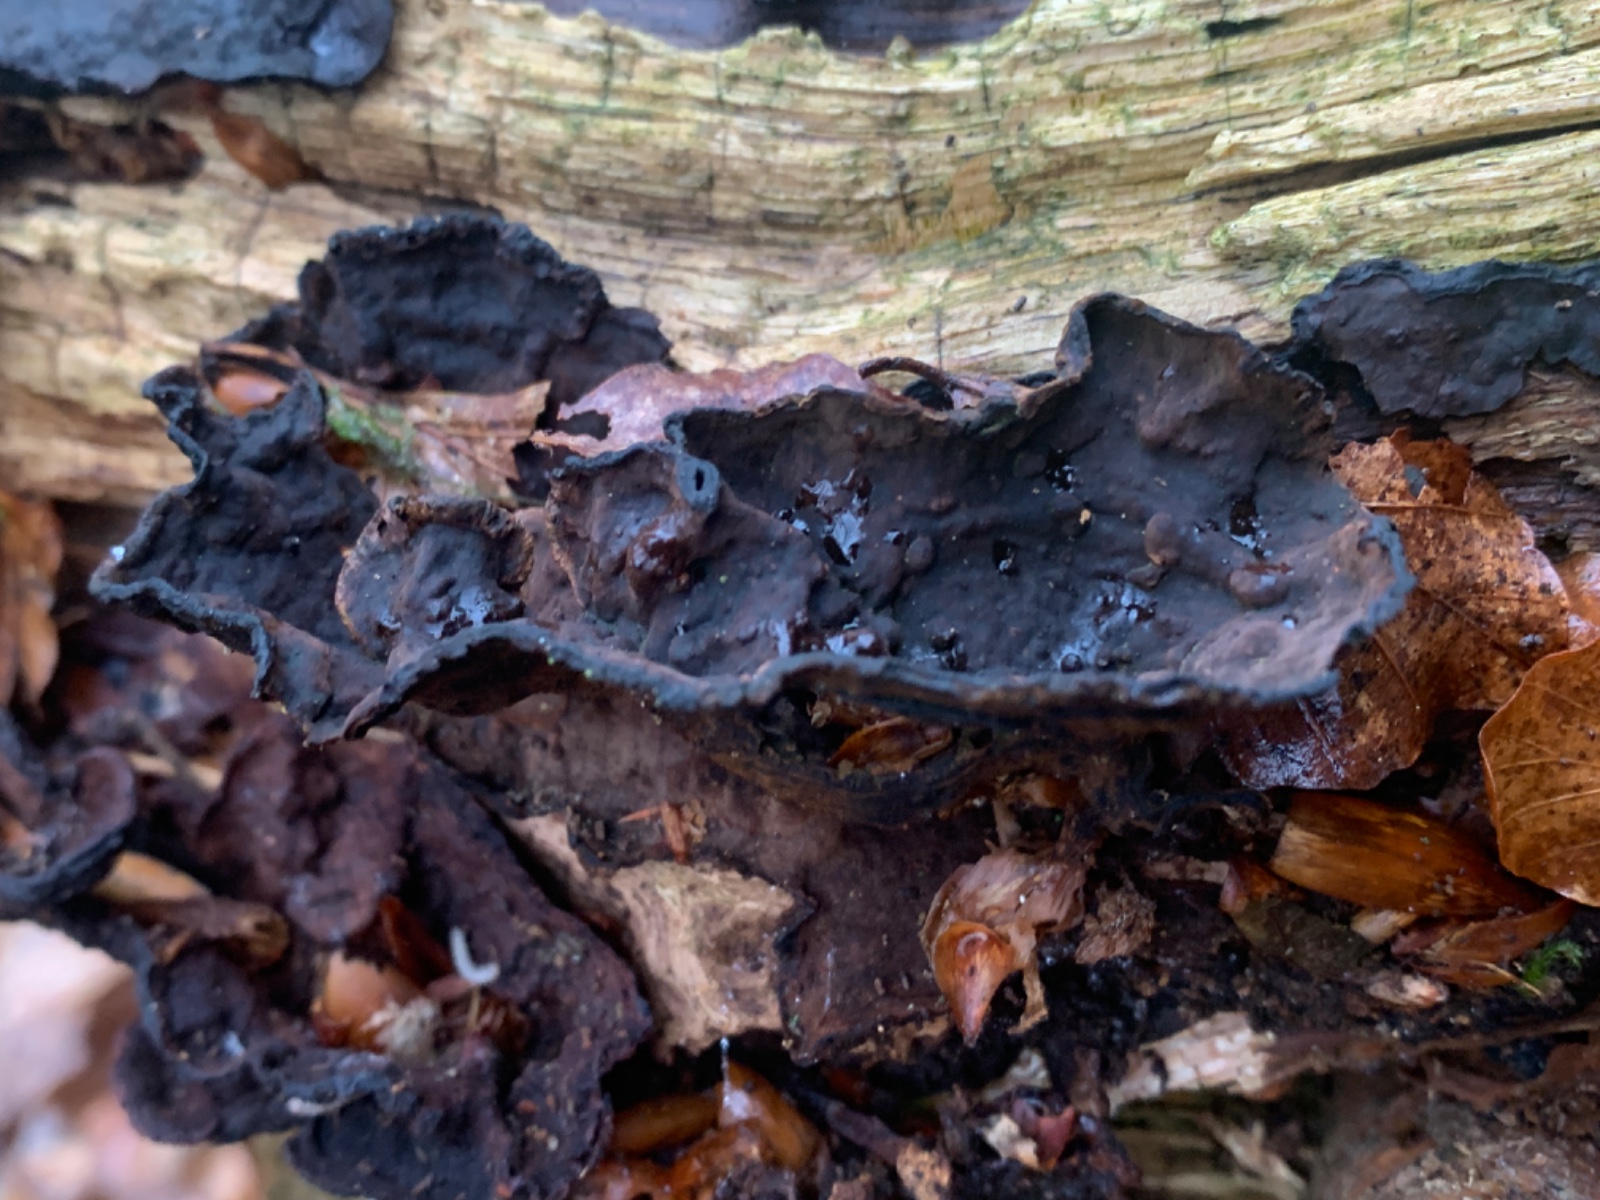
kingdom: Fungi
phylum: Basidiomycota
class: Agaricomycetes
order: Hymenochaetales
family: Hymenochaetaceae
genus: Hymenochaete
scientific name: Hymenochaete rubiginosa
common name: stiv ruslædersvamp
